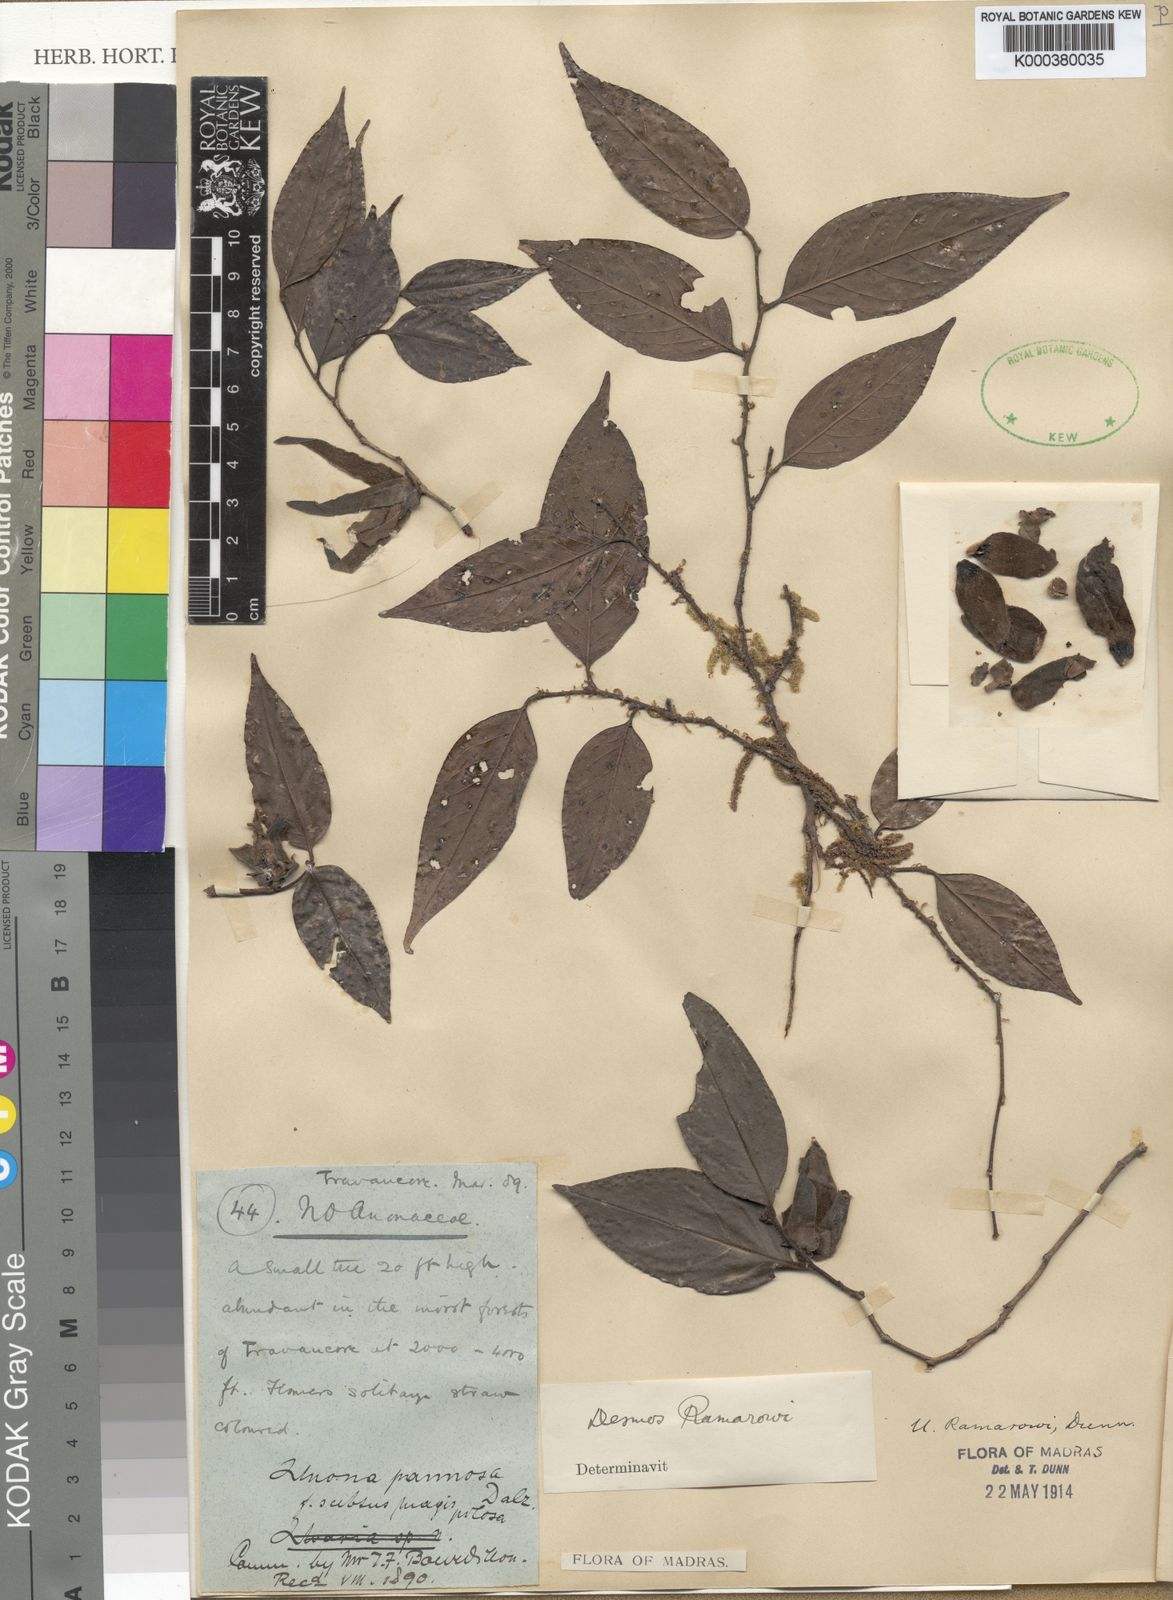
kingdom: Plantae
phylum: Tracheophyta
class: Magnoliopsida
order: Magnoliales
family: Annonaceae
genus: Meiogyne
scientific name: Meiogyne pannosa
